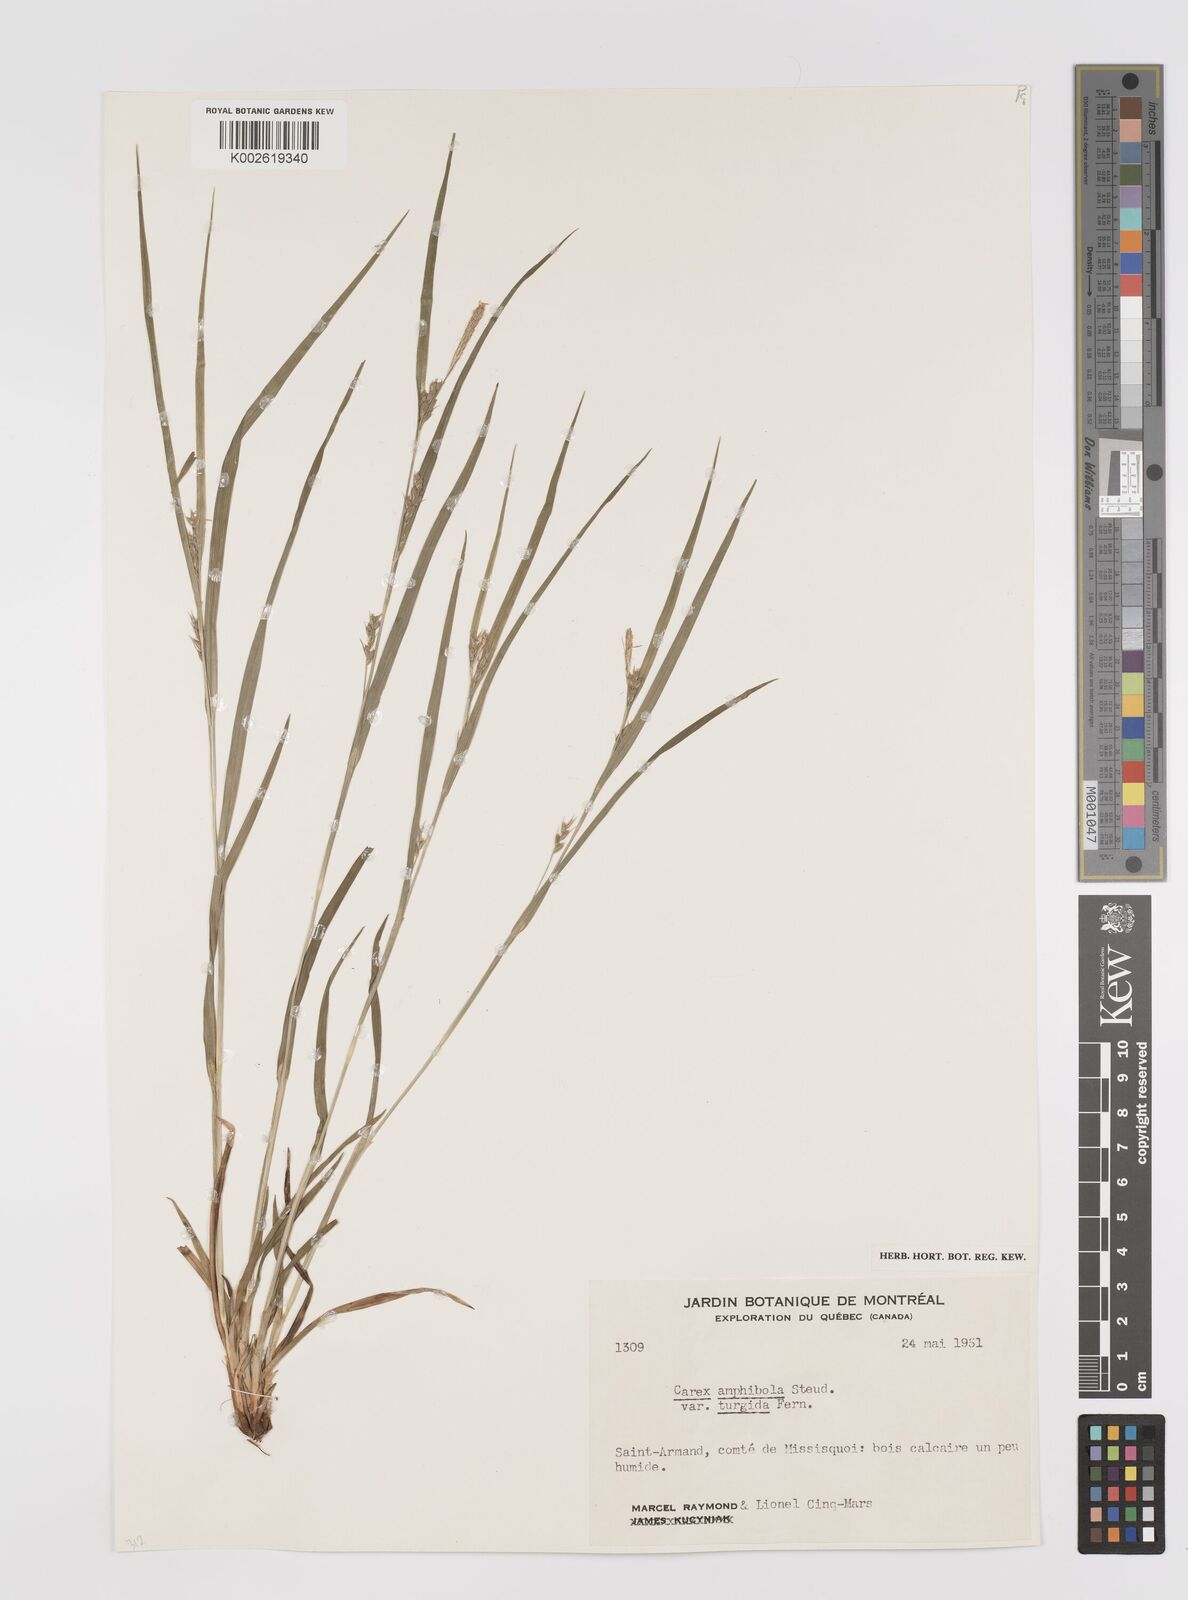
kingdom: Plantae
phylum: Tracheophyta
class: Liliopsida
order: Poales
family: Cyperaceae
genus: Carex
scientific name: Carex amphibola
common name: Amphibious sedge
